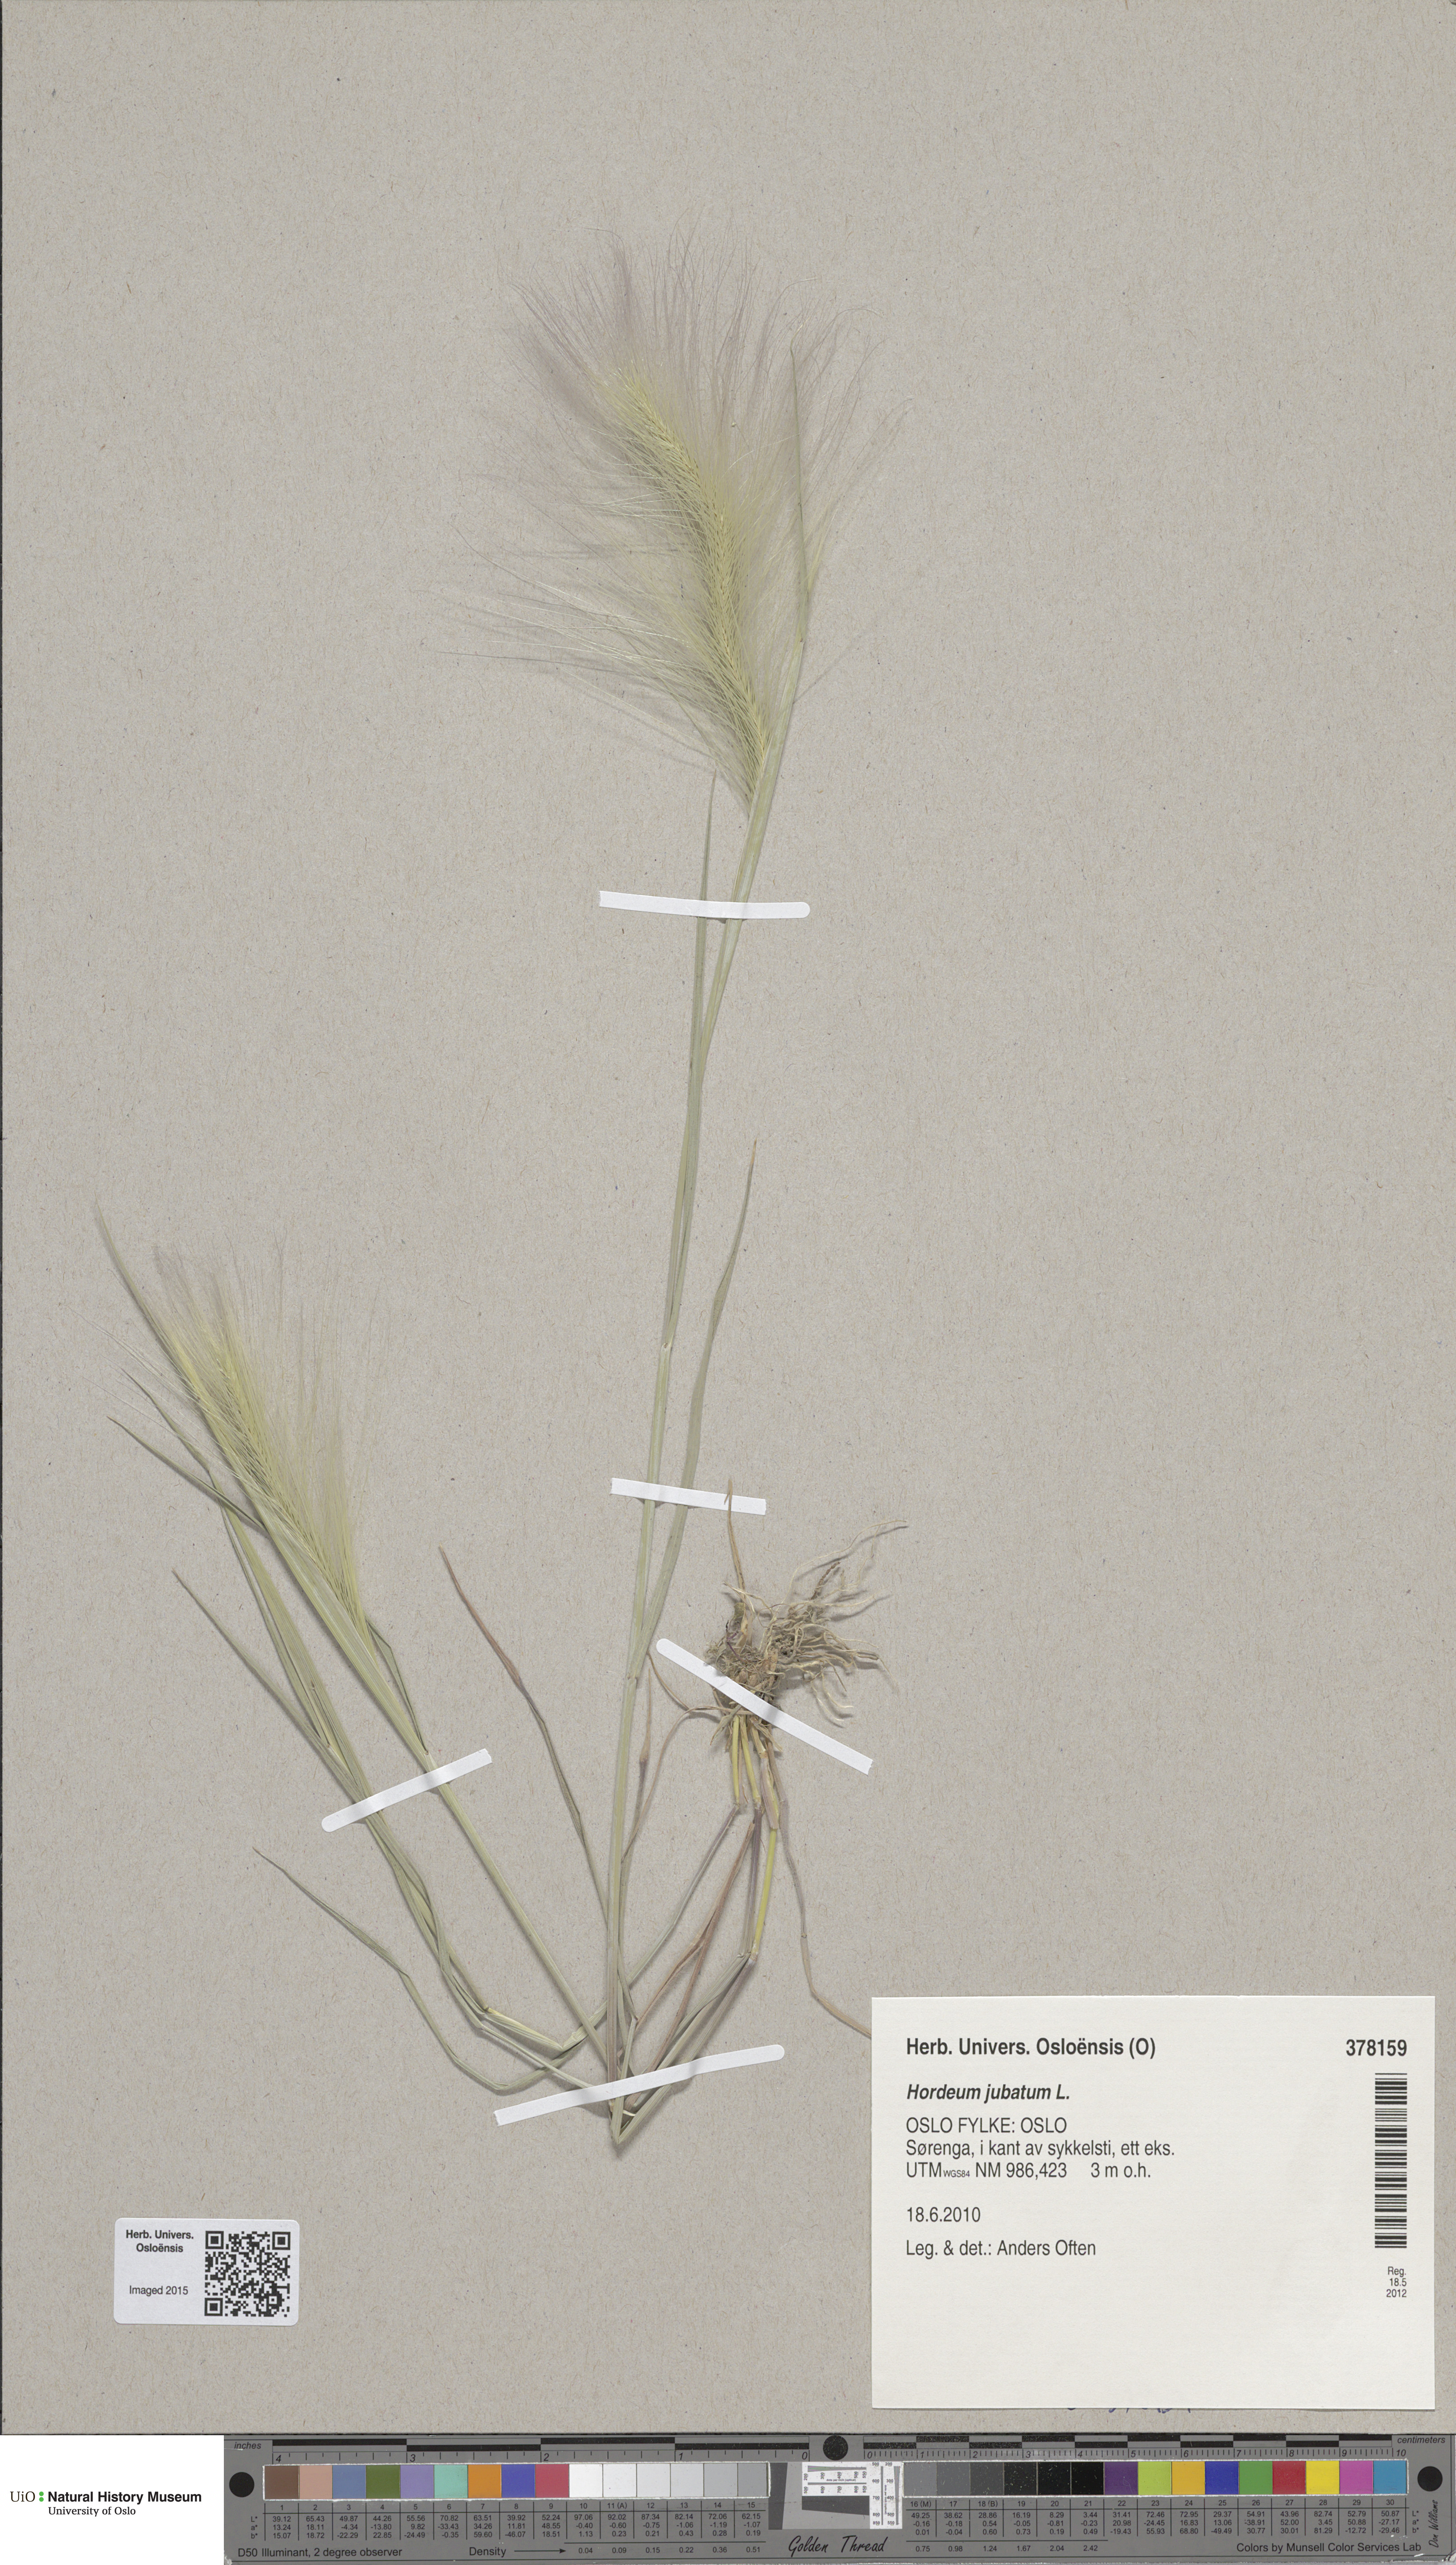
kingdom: Plantae
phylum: Tracheophyta
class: Liliopsida
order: Poales
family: Poaceae
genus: Hordeum
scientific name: Hordeum jubatum
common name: Foxtail barley
